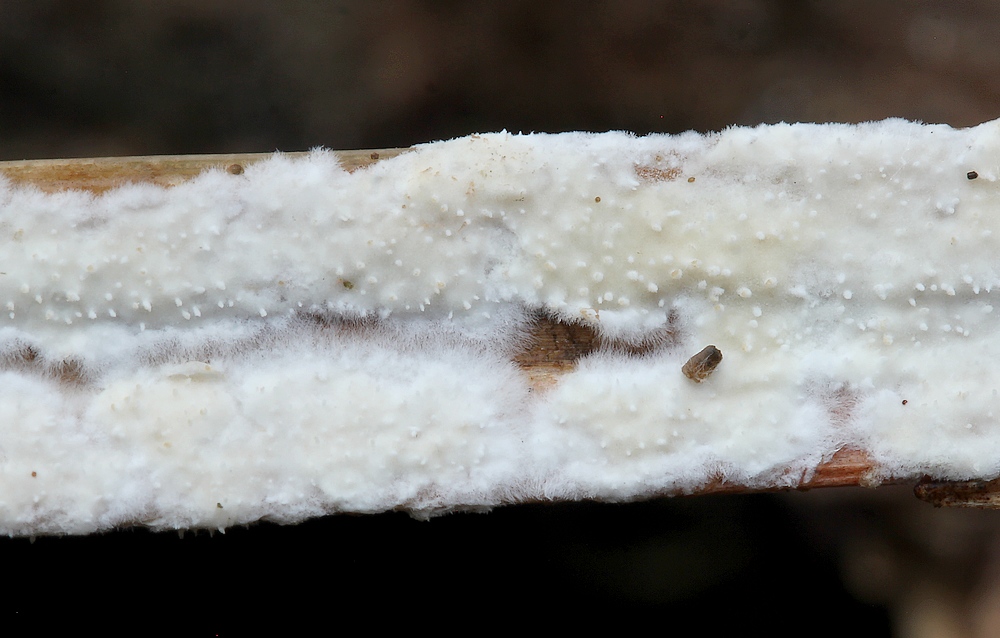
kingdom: Fungi
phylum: Basidiomycota
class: Agaricomycetes
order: Polyporales
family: Polyporaceae
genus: Epithele
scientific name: Epithele typhae
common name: starpig
